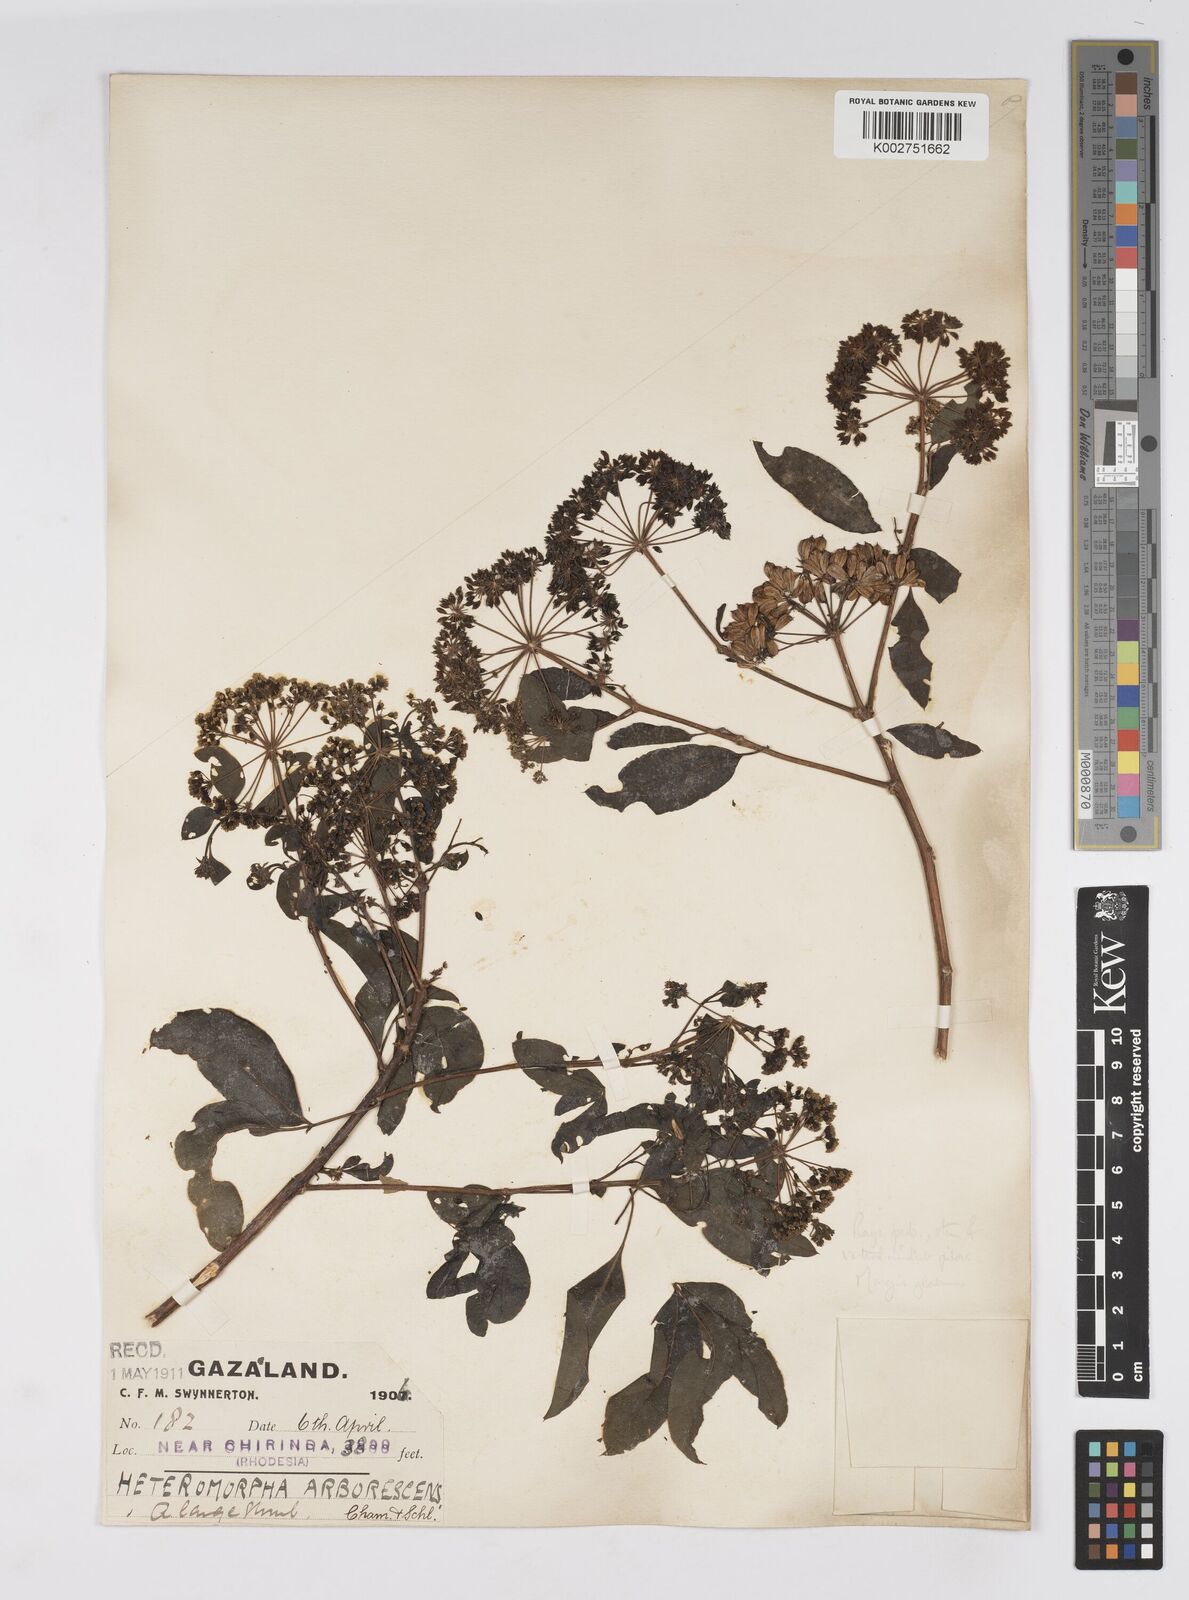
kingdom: Plantae
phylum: Tracheophyta
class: Magnoliopsida
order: Apiales
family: Apiaceae
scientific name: Apiaceae
